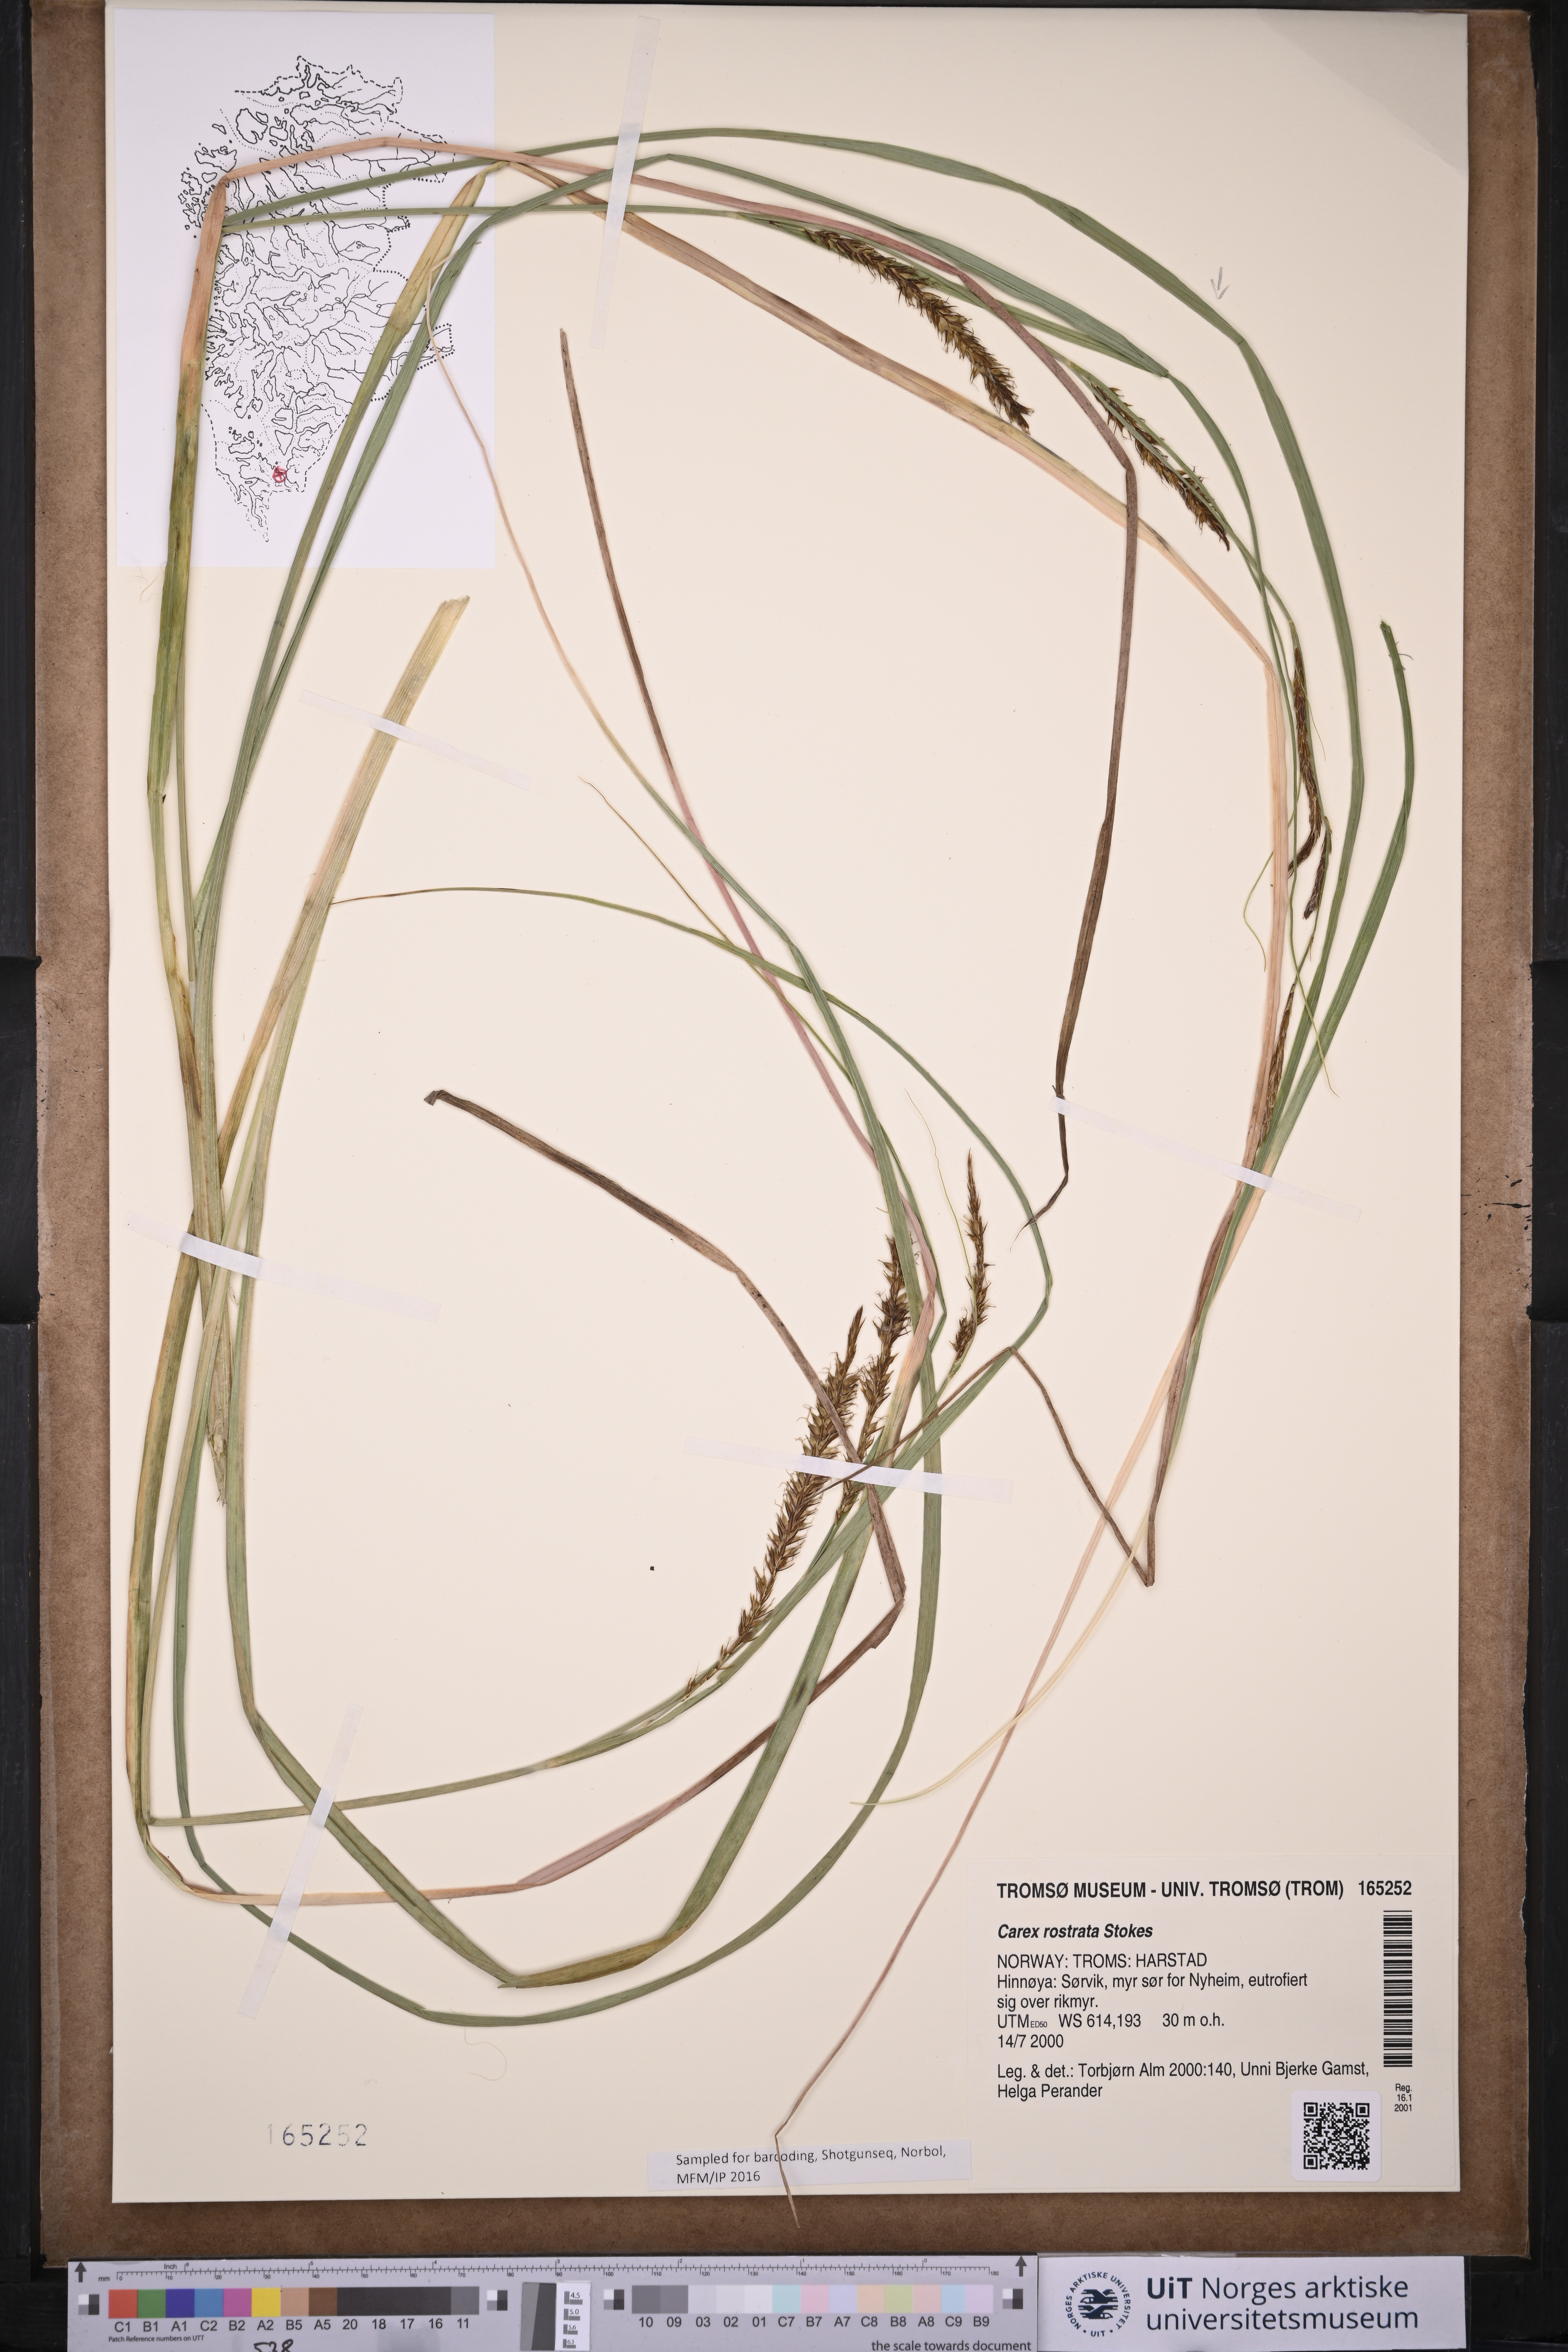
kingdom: Plantae
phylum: Tracheophyta
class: Liliopsida
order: Poales
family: Cyperaceae
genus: Carex
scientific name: Carex rostrata
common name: Bottle sedge
